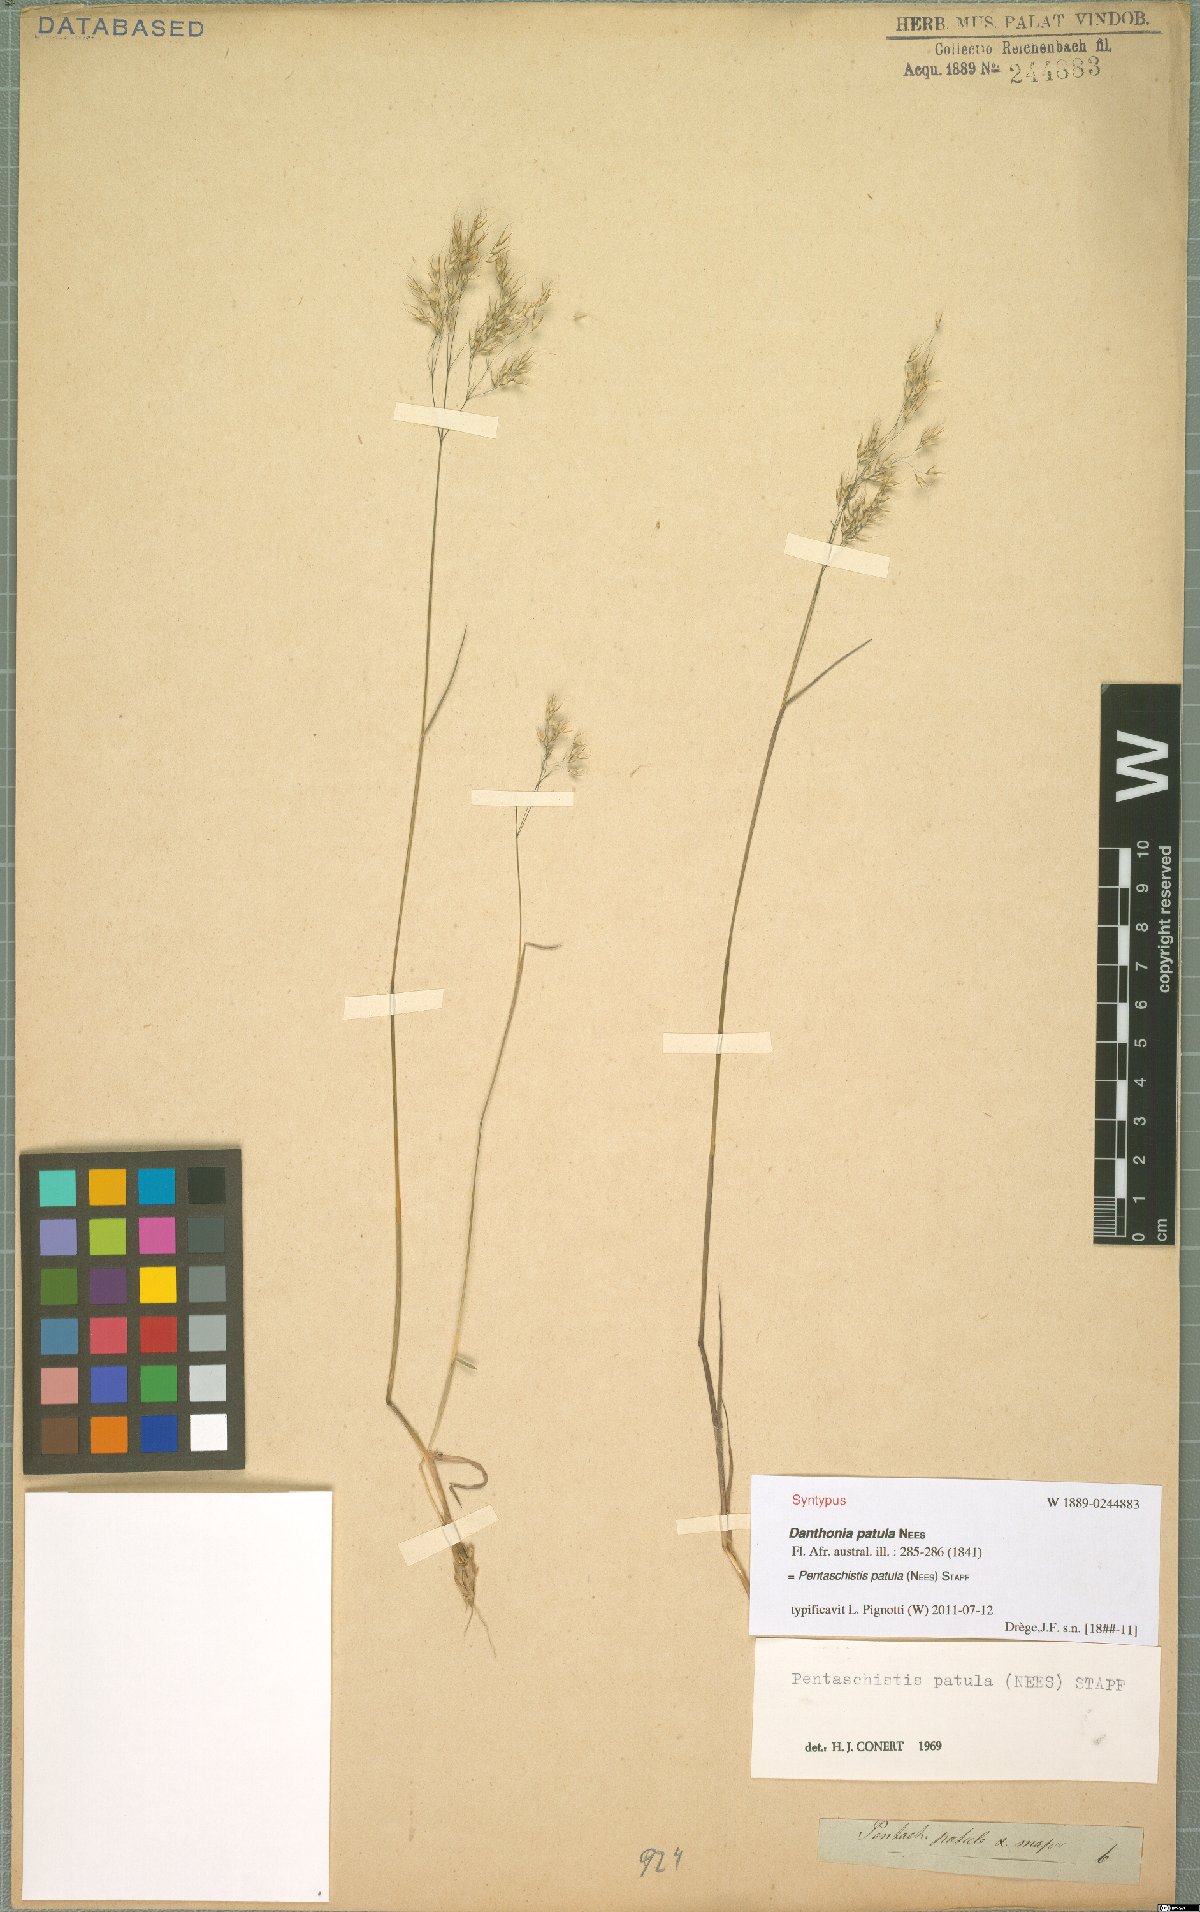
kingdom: Plantae
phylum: Tracheophyta
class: Liliopsida
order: Poales
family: Poaceae
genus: Pentameris
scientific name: Pentameris patula
